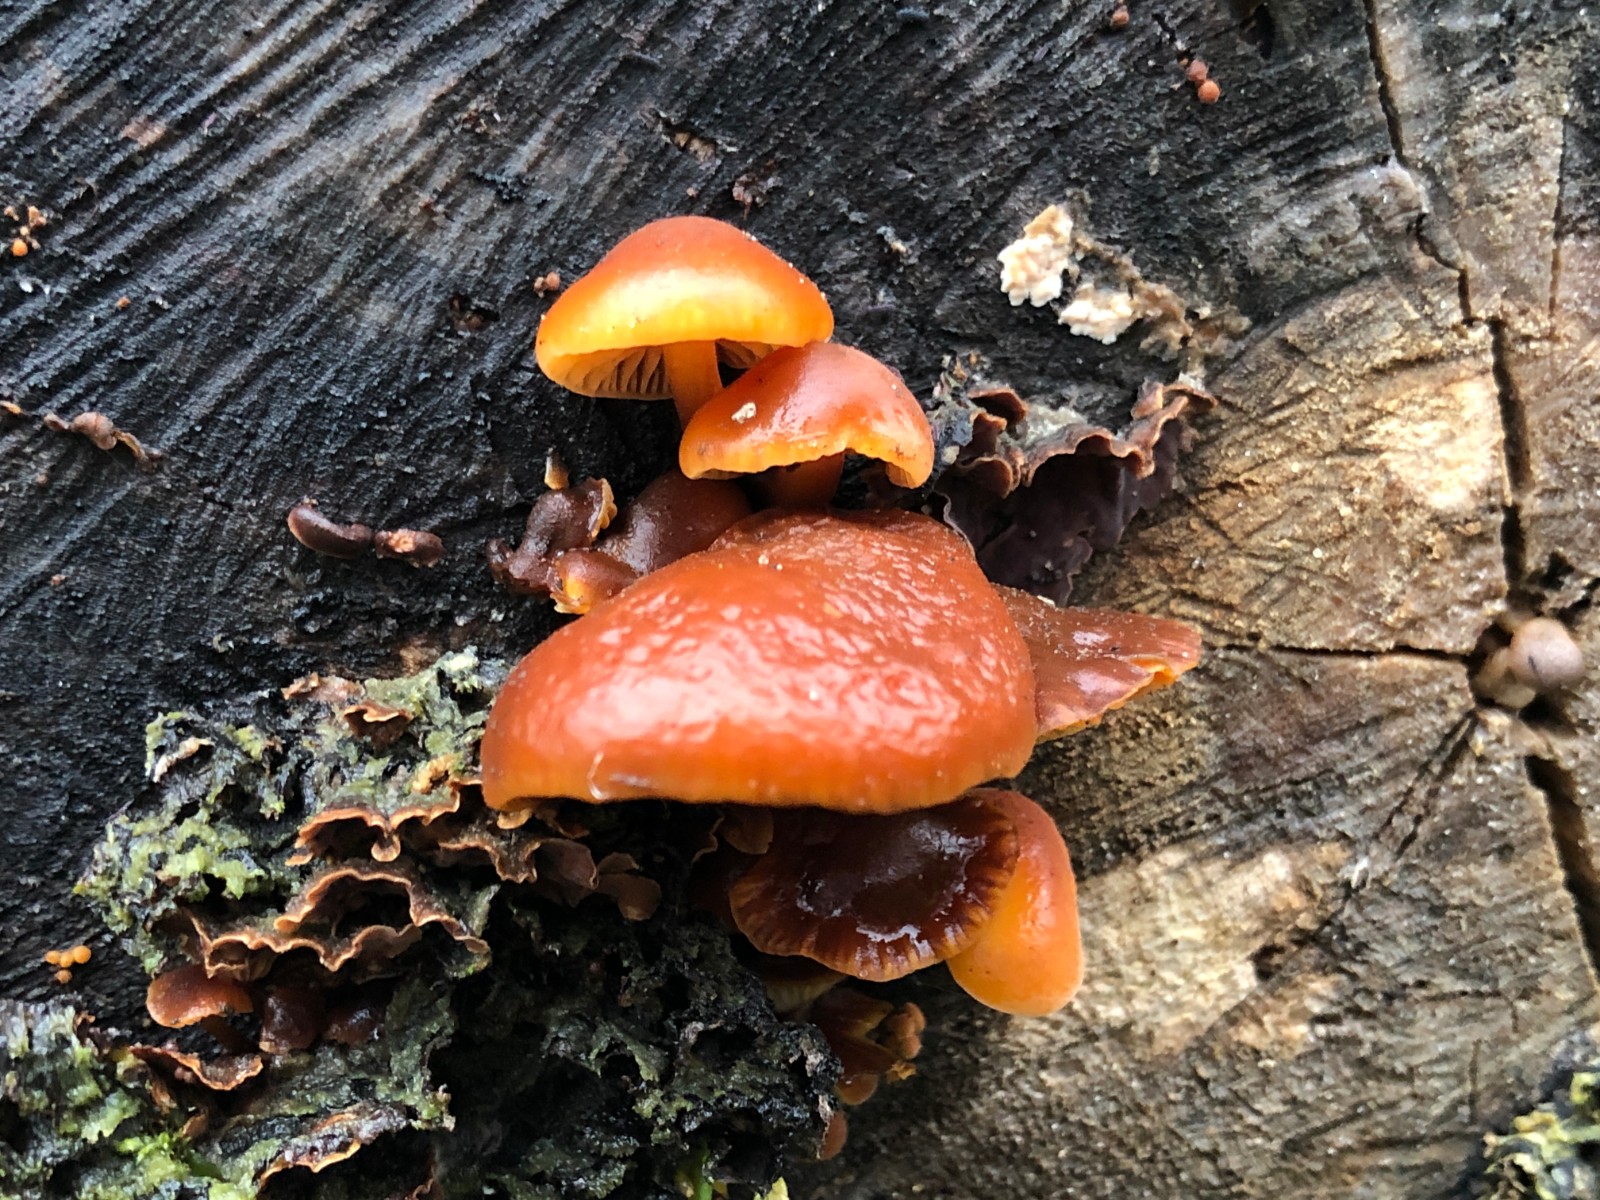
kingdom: Fungi
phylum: Basidiomycota
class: Agaricomycetes
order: Agaricales
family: Physalacriaceae
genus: Flammulina
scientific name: Flammulina velutipes
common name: gul fløjlsfod
